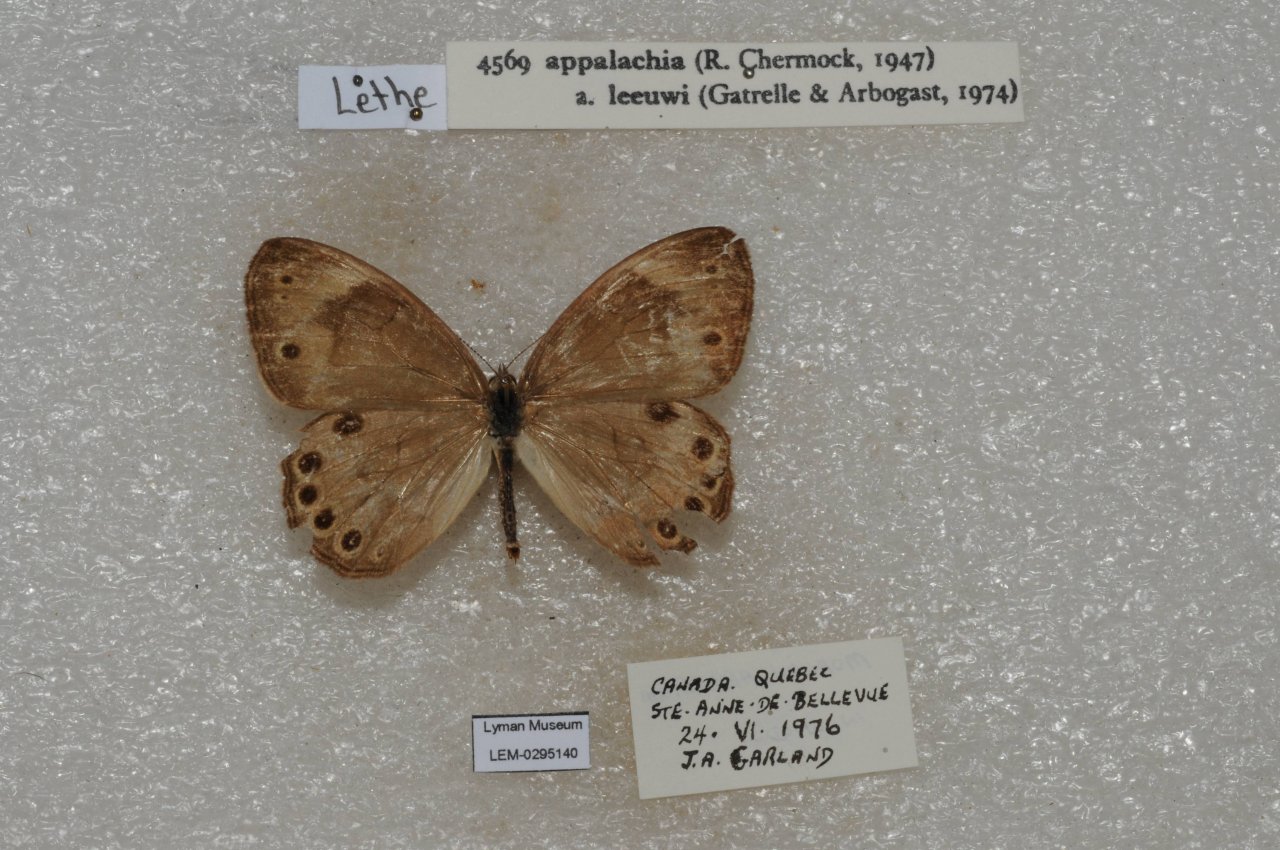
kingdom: Animalia
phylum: Arthropoda
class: Insecta
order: Lepidoptera
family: Nymphalidae
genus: Lethe
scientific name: Lethe eurydice
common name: Appalachian Eyed Brown
